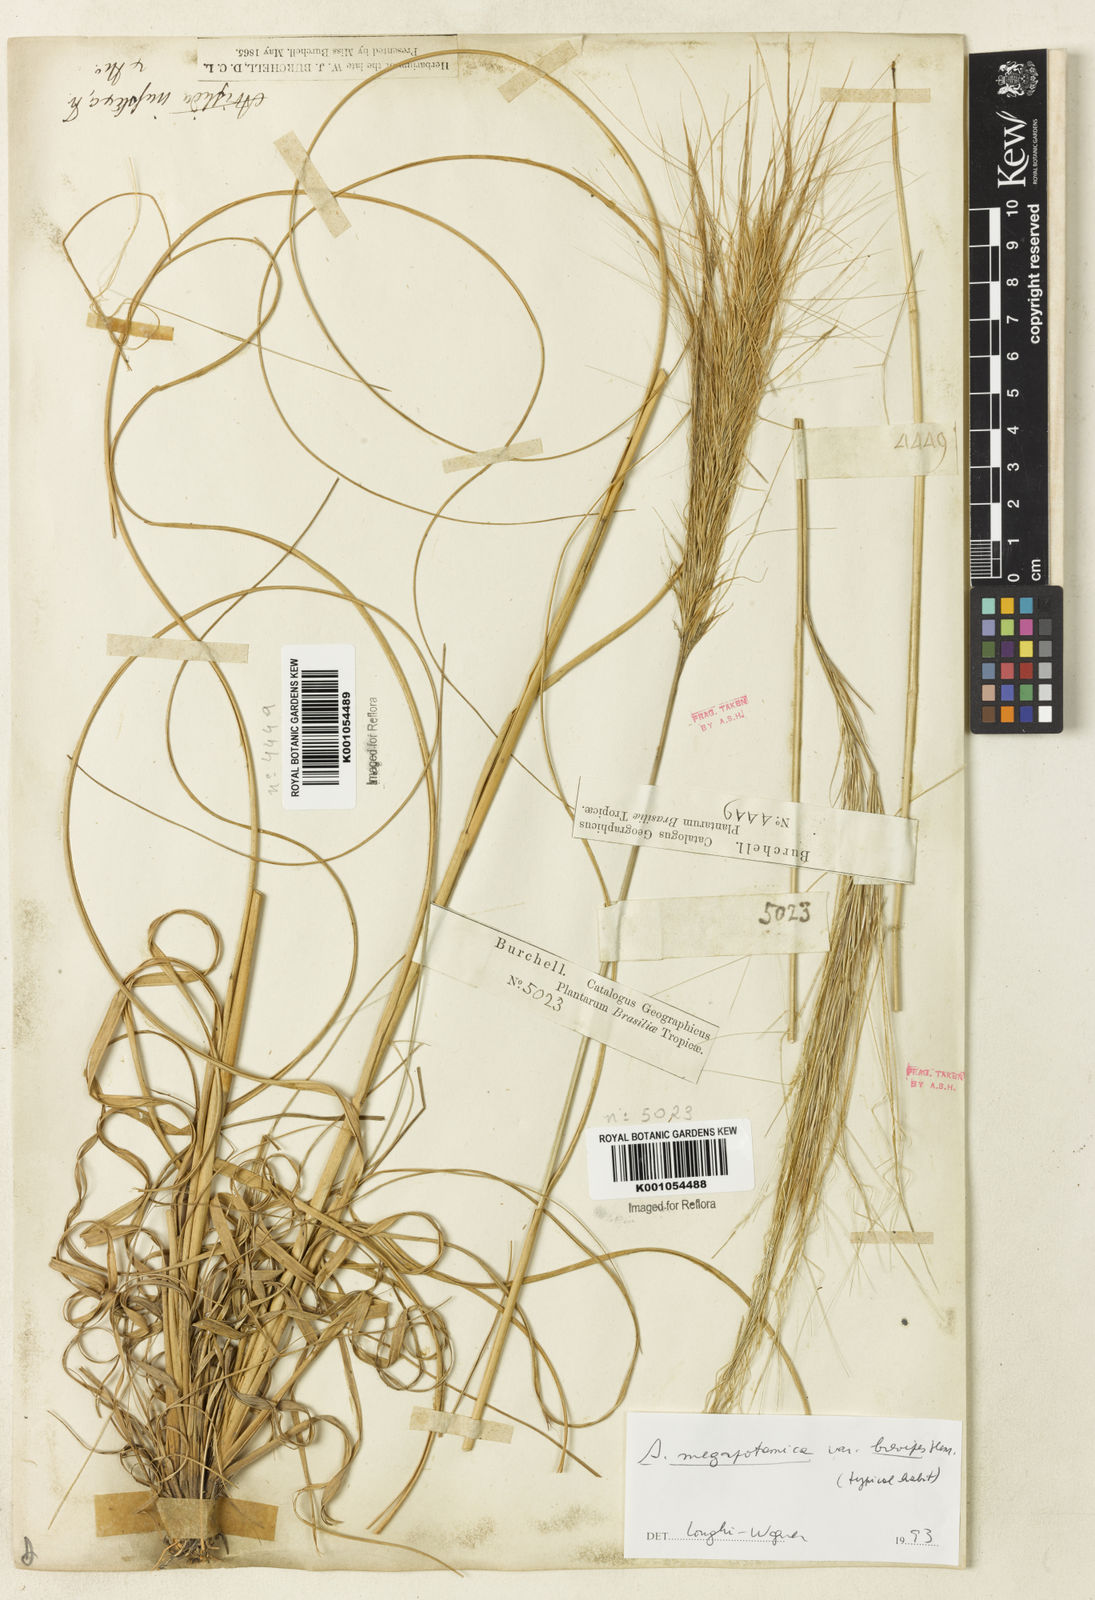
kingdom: Plantae
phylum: Tracheophyta
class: Liliopsida
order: Poales
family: Poaceae
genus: Aristida
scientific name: Aristida megapotamica
